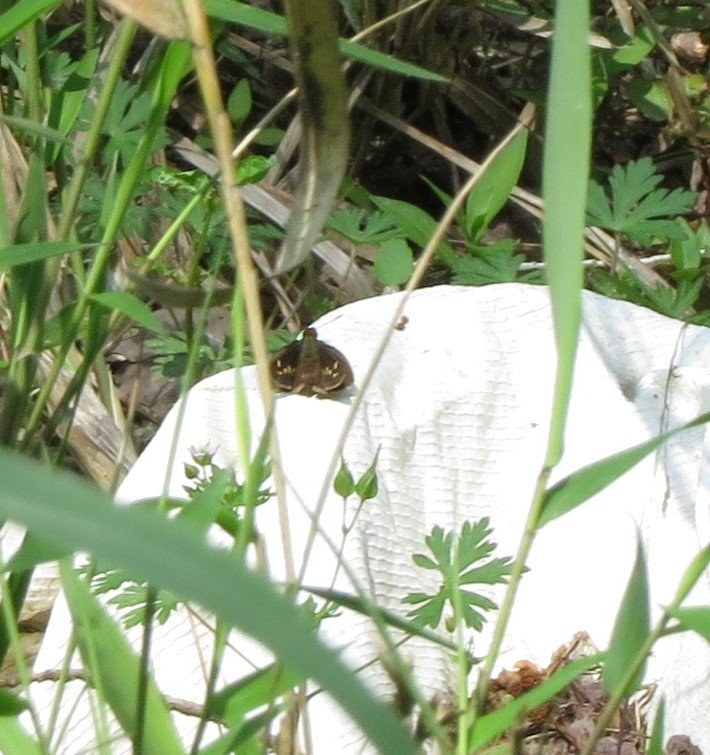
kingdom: Animalia
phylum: Arthropoda
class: Insecta
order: Lepidoptera
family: Hesperiidae
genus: Lon
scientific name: Lon zabulon
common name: Zabulon Skipper
